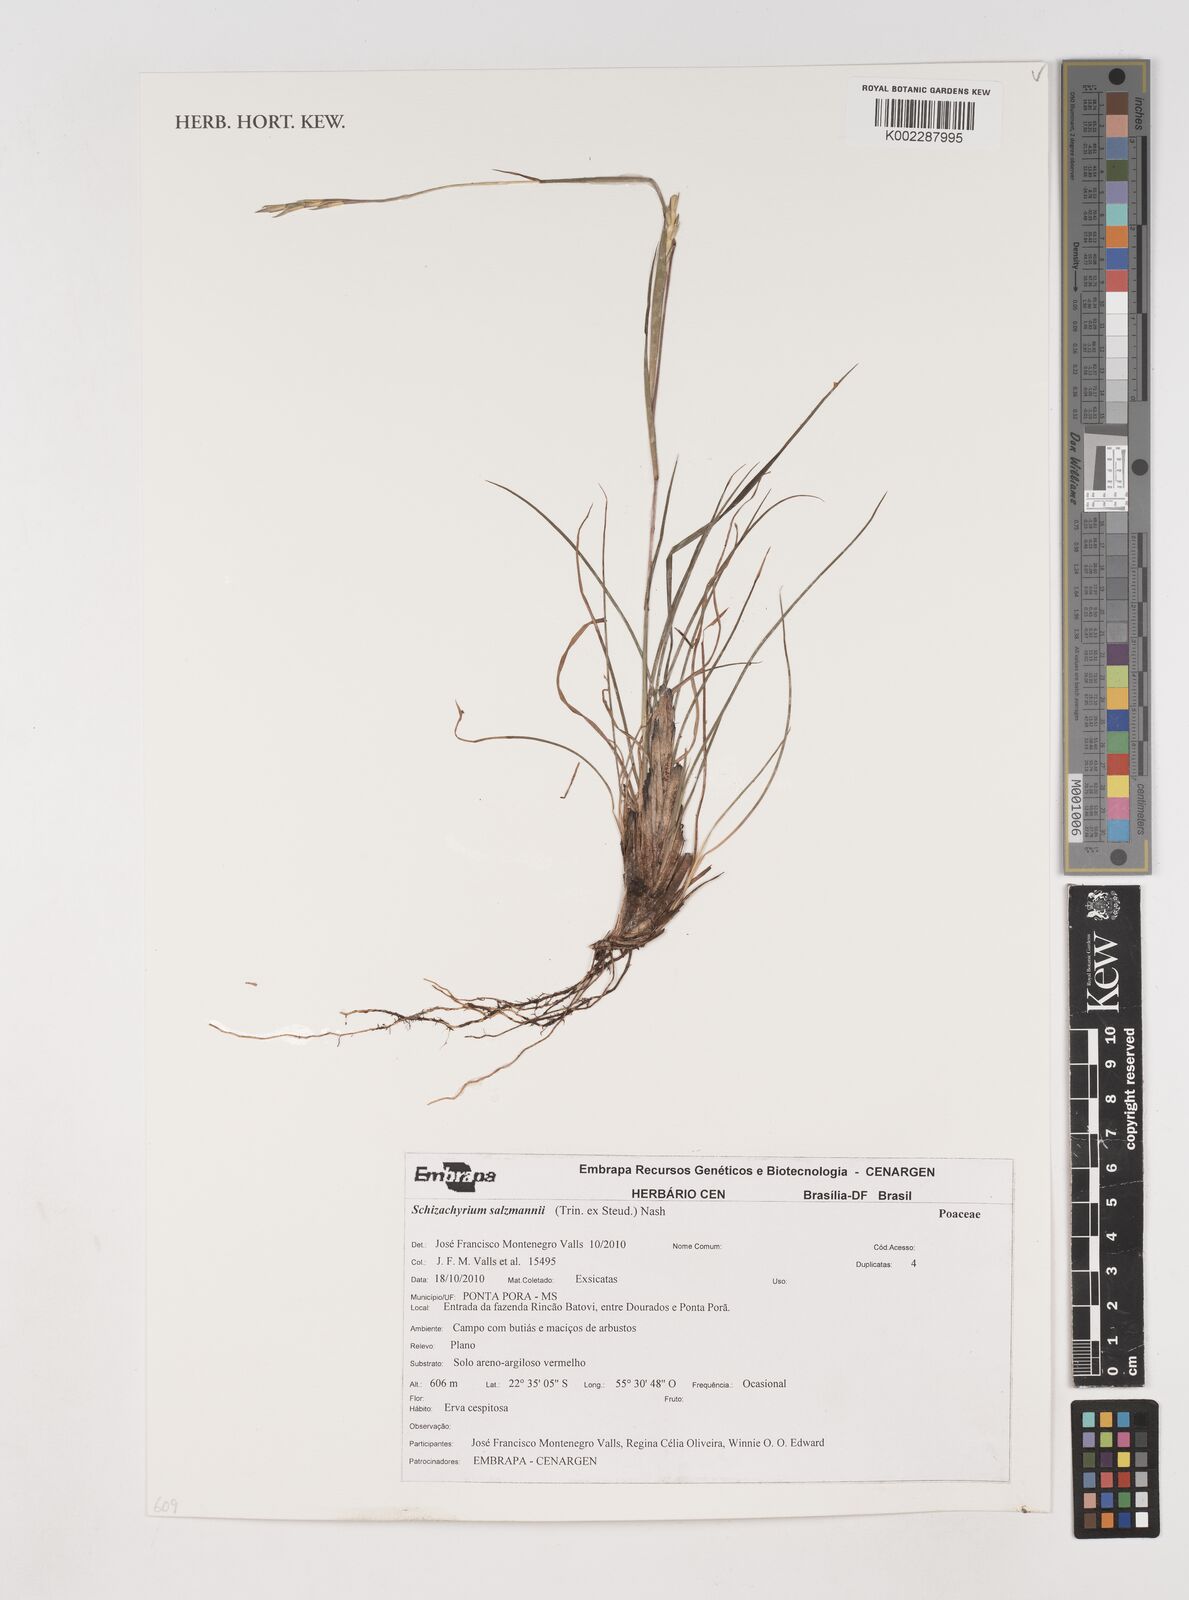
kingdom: Plantae
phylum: Tracheophyta
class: Liliopsida
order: Poales
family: Poaceae
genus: Andropogon
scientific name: Andropogon salzmannii
